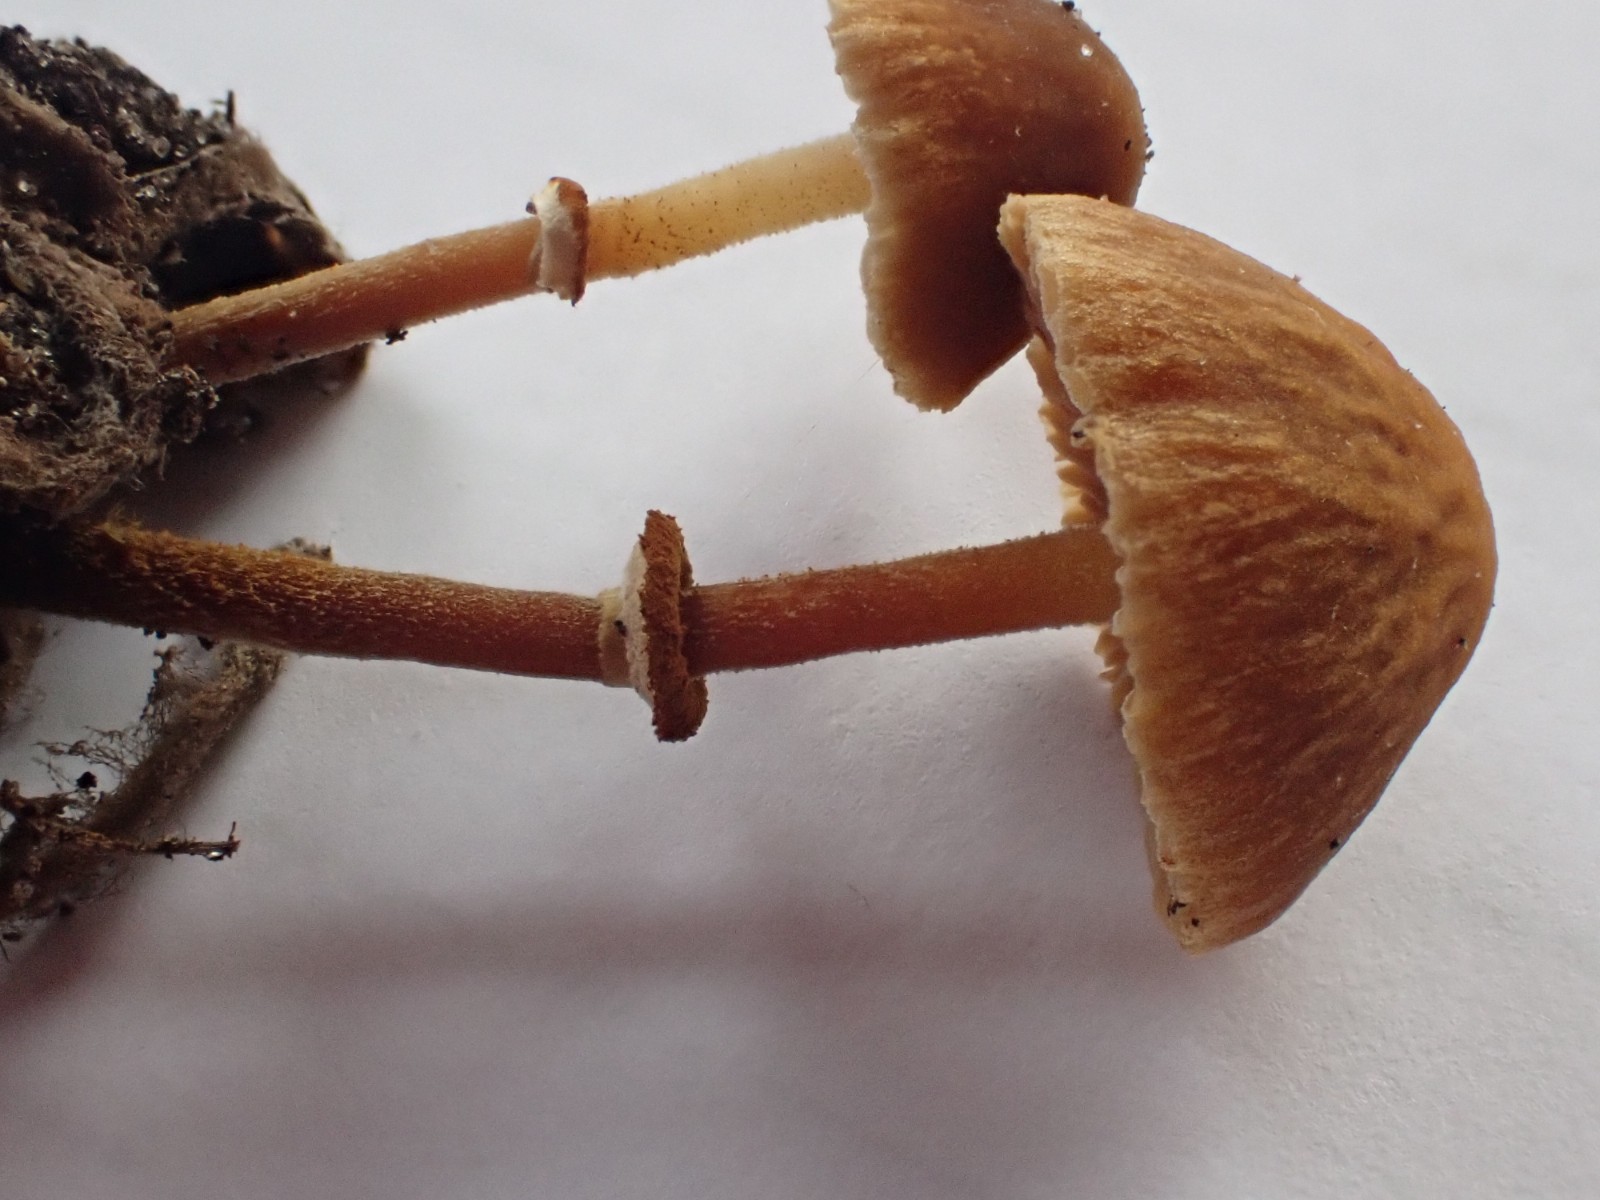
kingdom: Fungi
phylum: Basidiomycota
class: Agaricomycetes
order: Agaricales
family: Bolbitiaceae
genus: Conocybe
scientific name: Conocybe rugosa
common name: giftig dansehat
